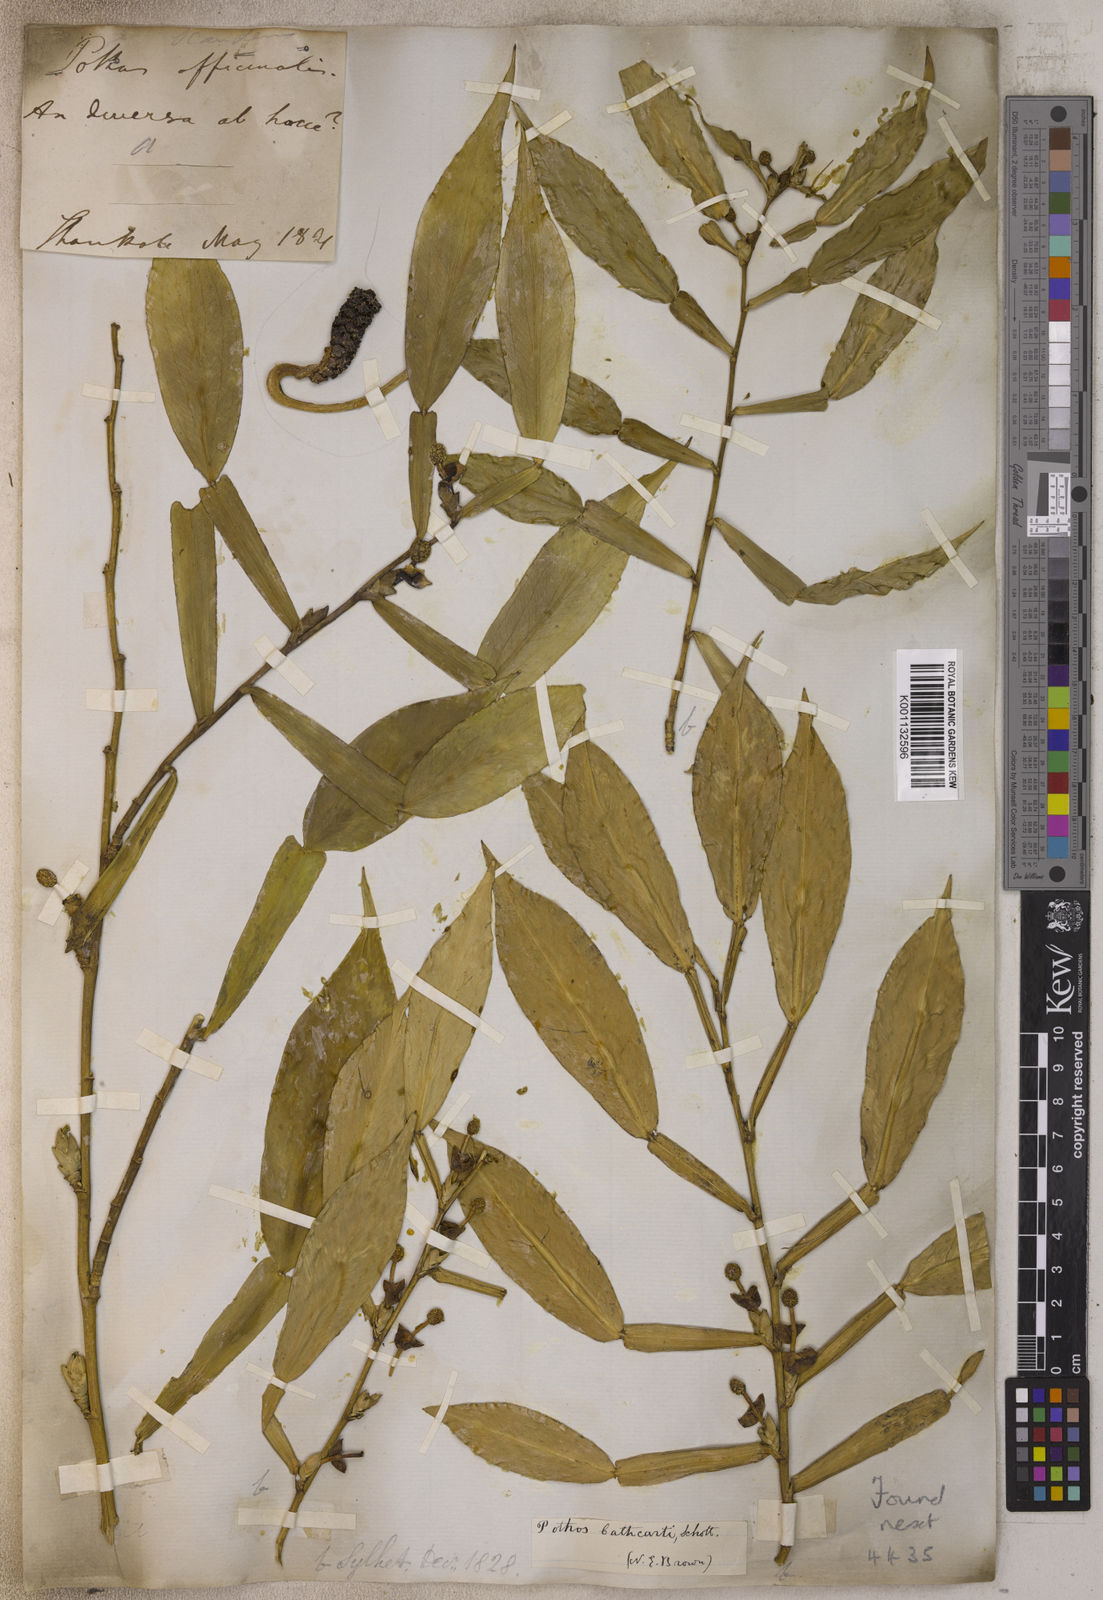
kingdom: Plantae
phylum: Tracheophyta
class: Liliopsida
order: Alismatales
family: Araceae
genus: Pothos
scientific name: Pothos chinensis
